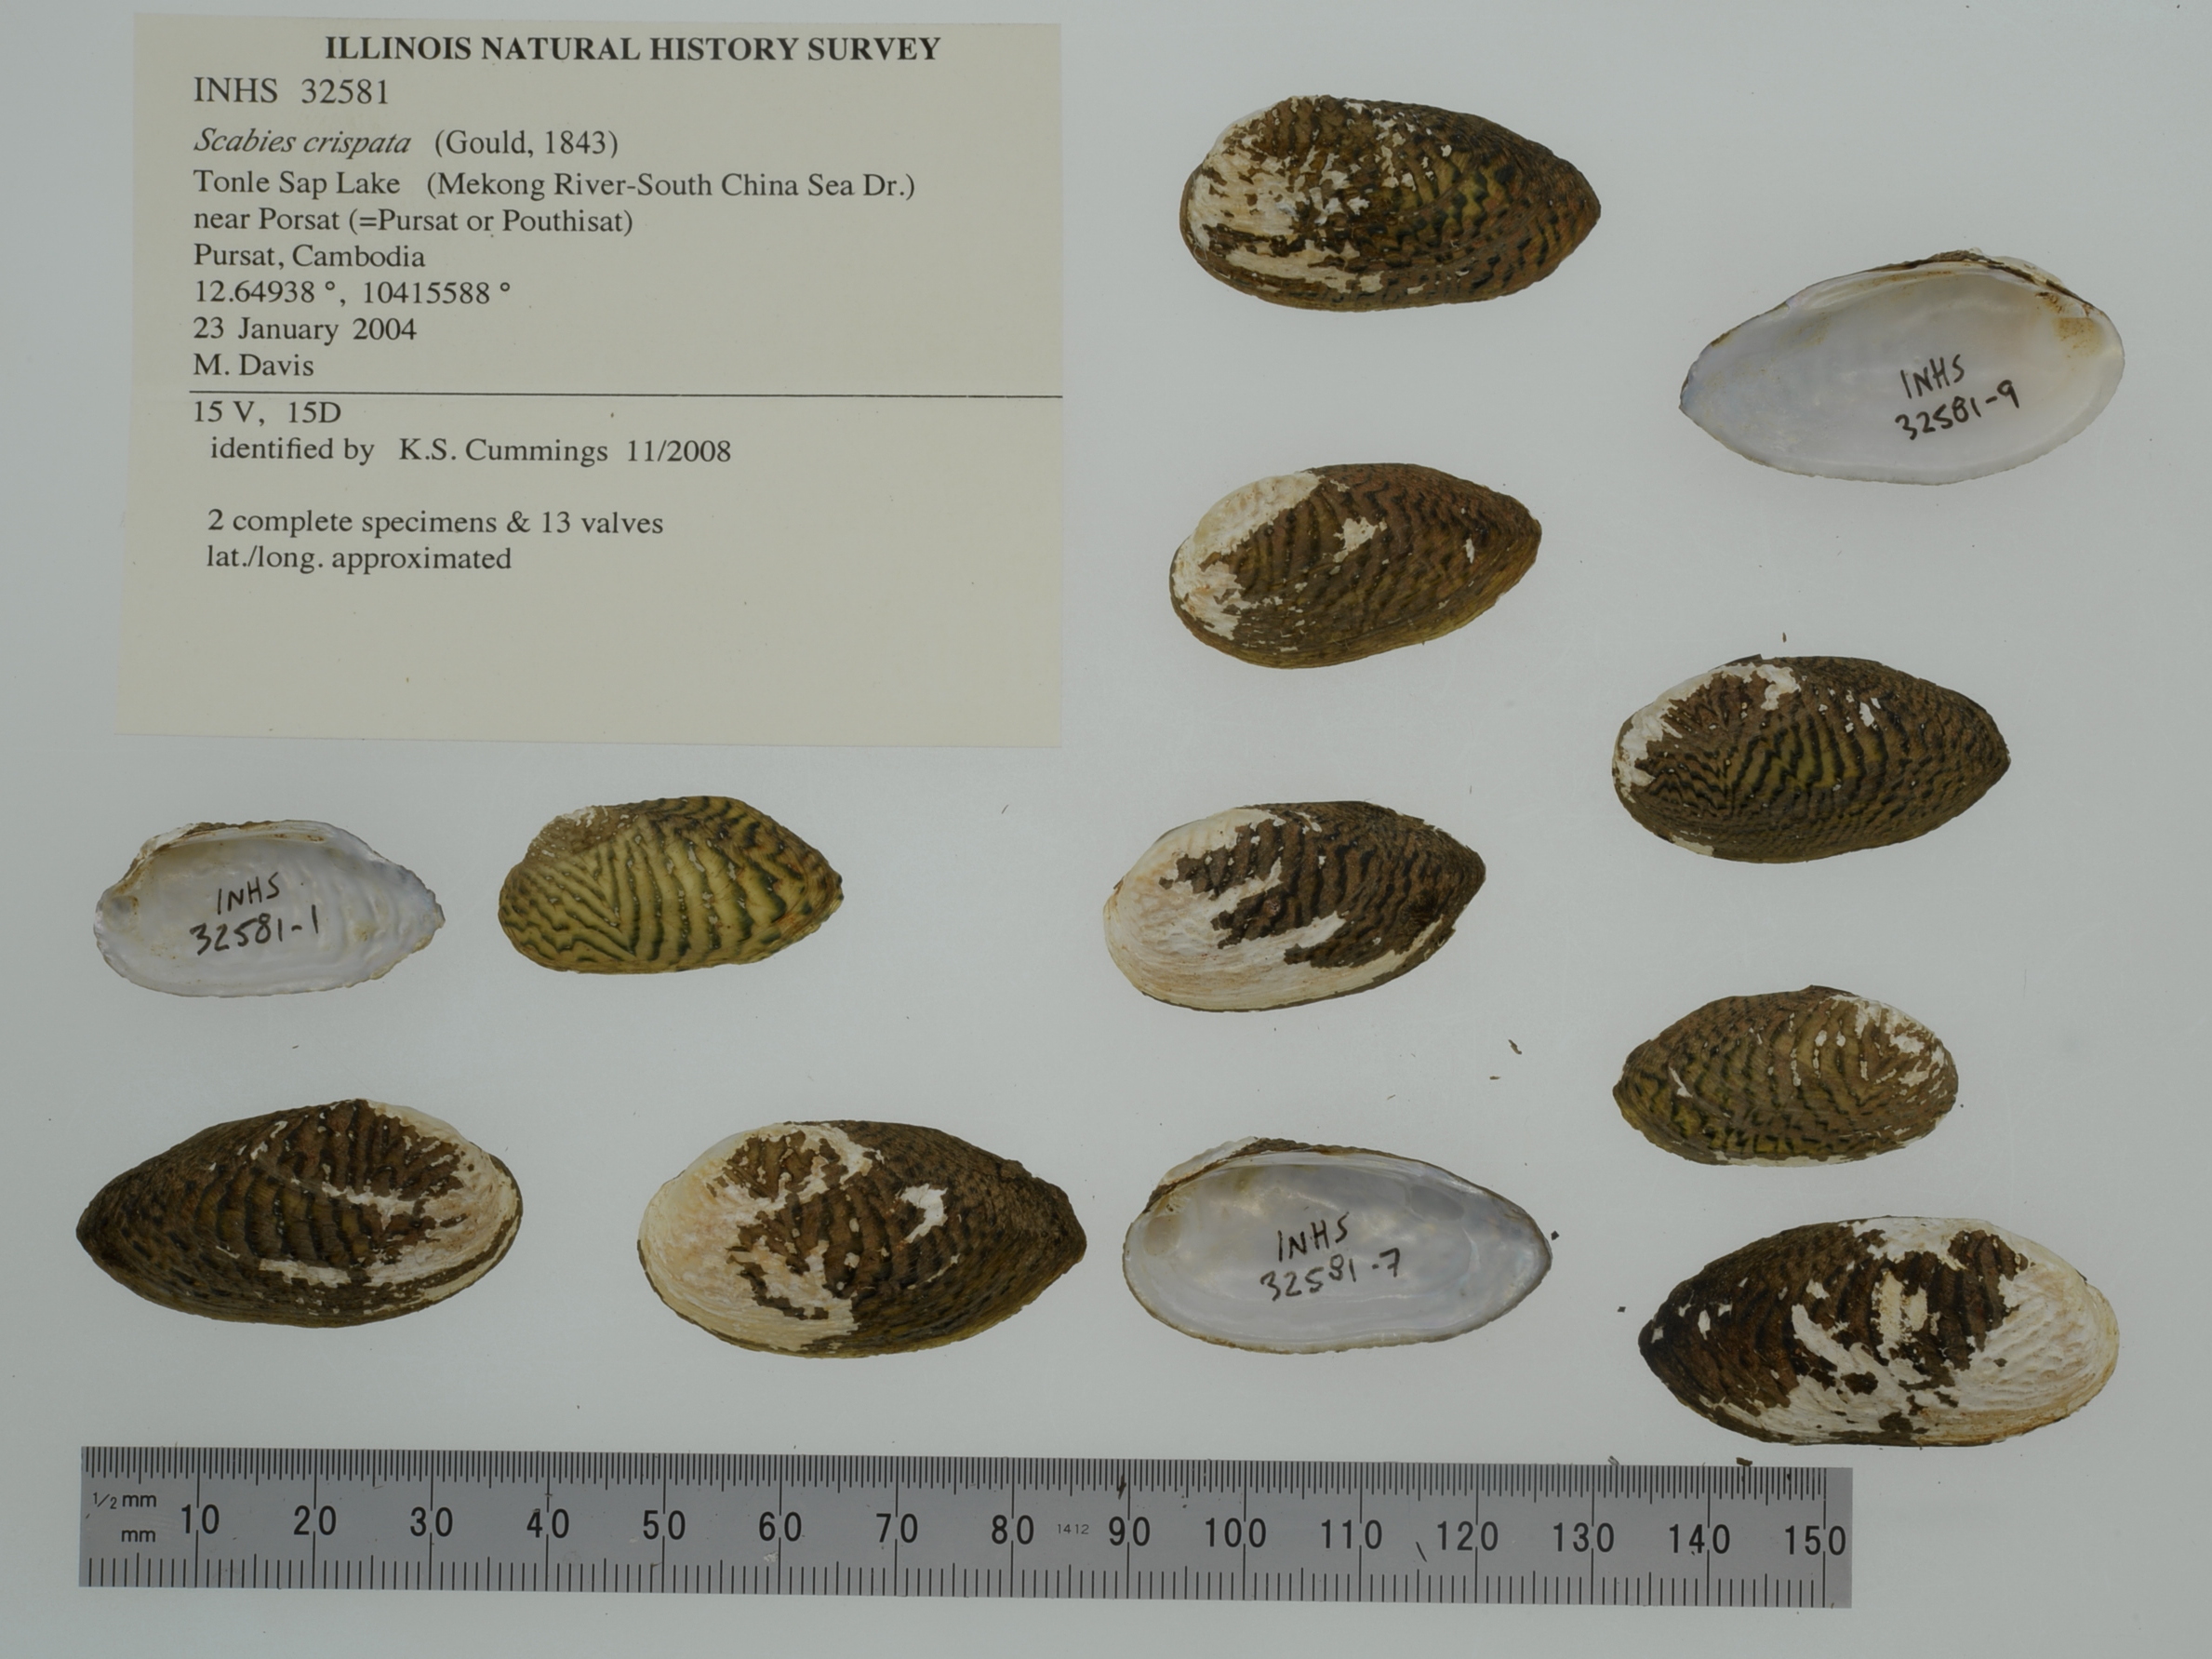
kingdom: Animalia
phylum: Mollusca
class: Bivalvia
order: Unionida
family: Unionidae
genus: Scabies
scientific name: Scabies crispata
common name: Scribbled mussel
